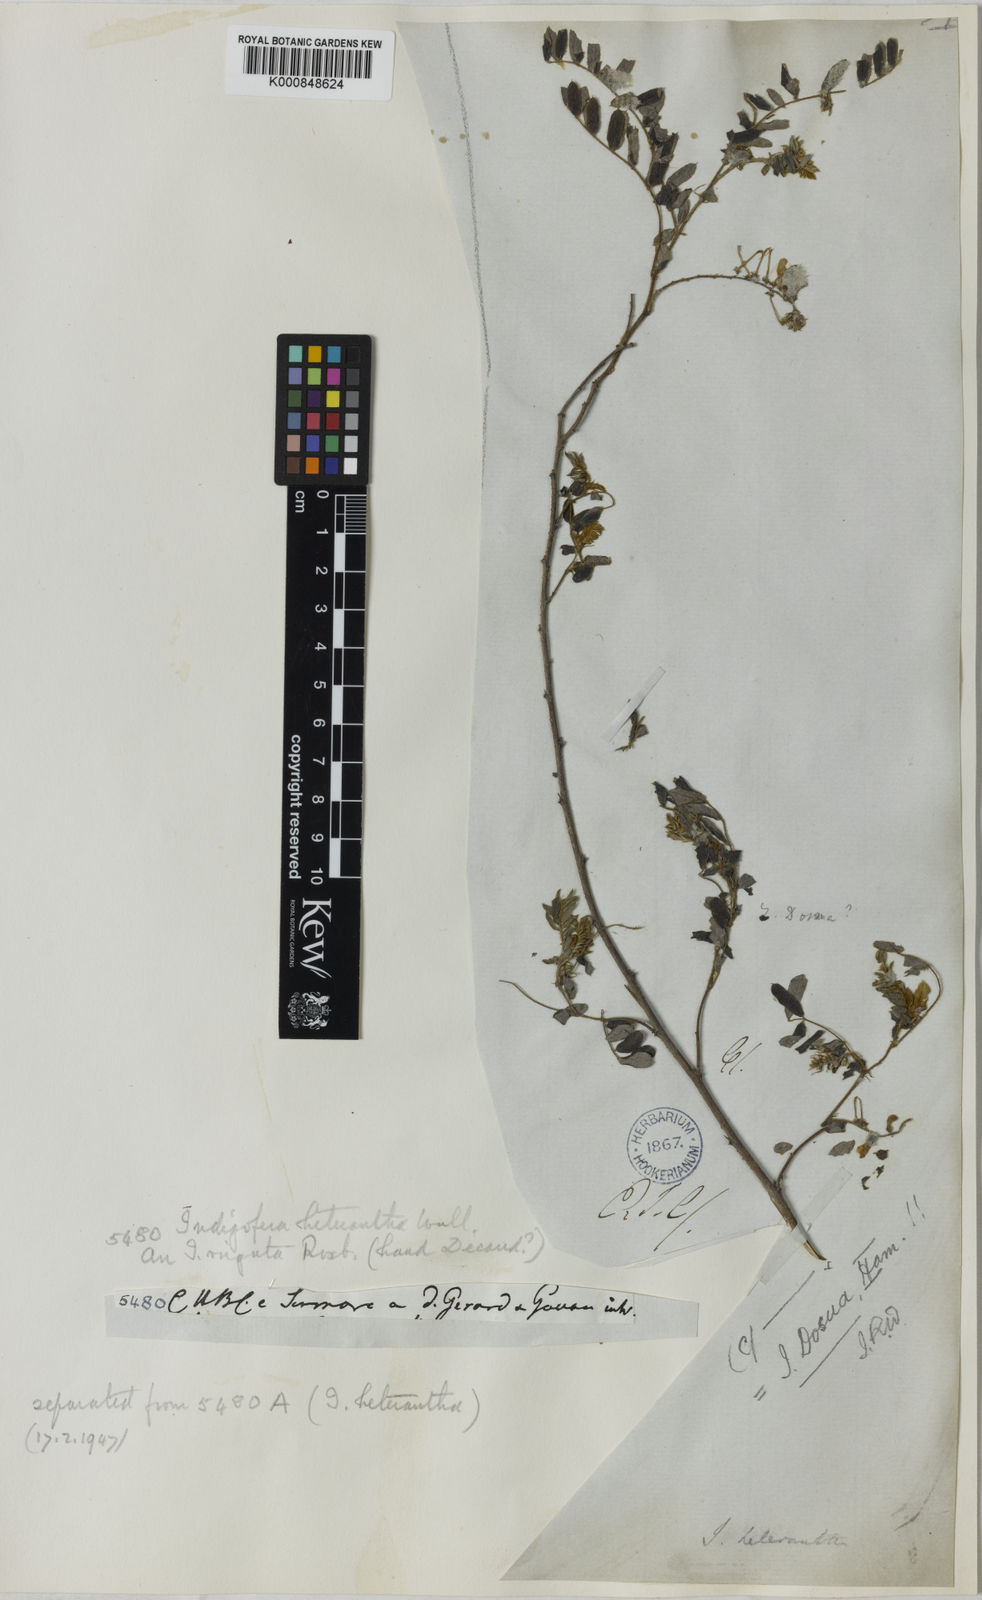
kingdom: Plantae
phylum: Tracheophyta
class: Magnoliopsida
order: Fabales
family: Fabaceae
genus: Indigofera
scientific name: Indigofera dosua
